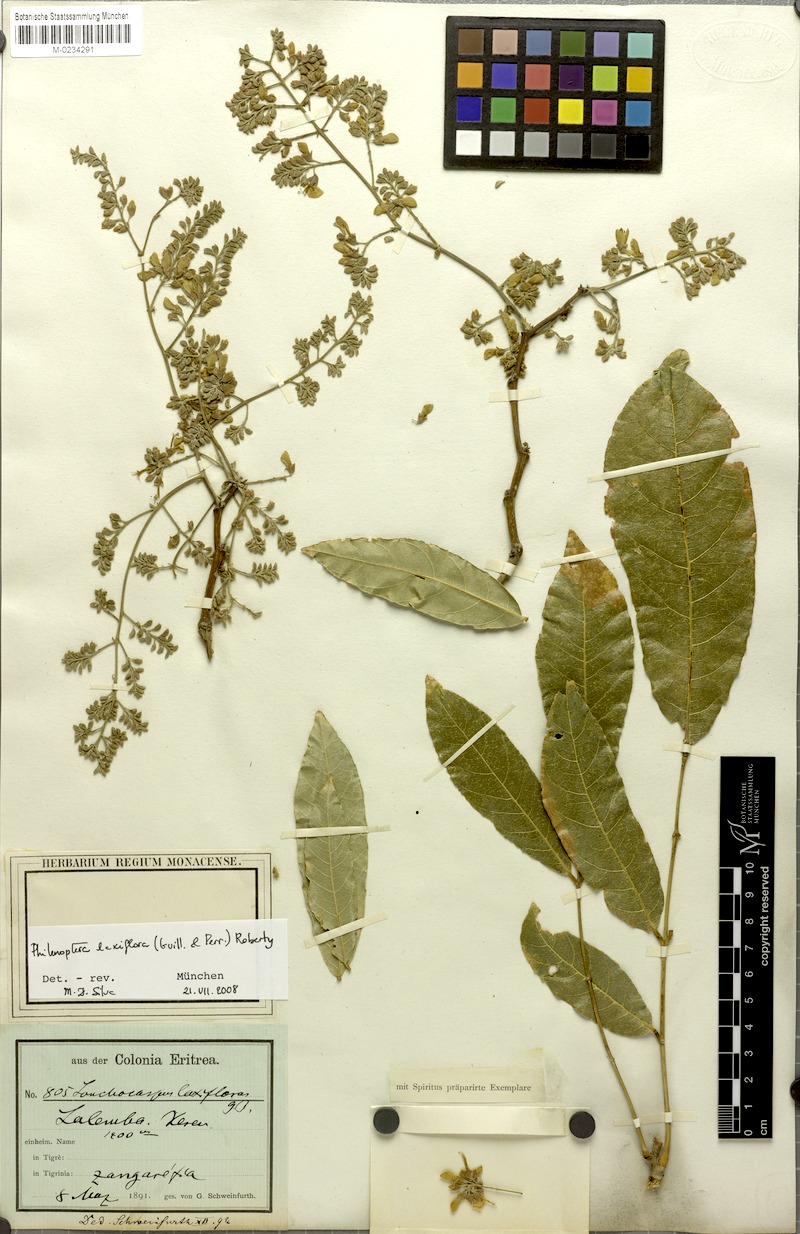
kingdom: Plantae
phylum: Tracheophyta
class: Magnoliopsida
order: Fabales
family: Fabaceae
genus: Philenoptera
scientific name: Philenoptera laxiflora
